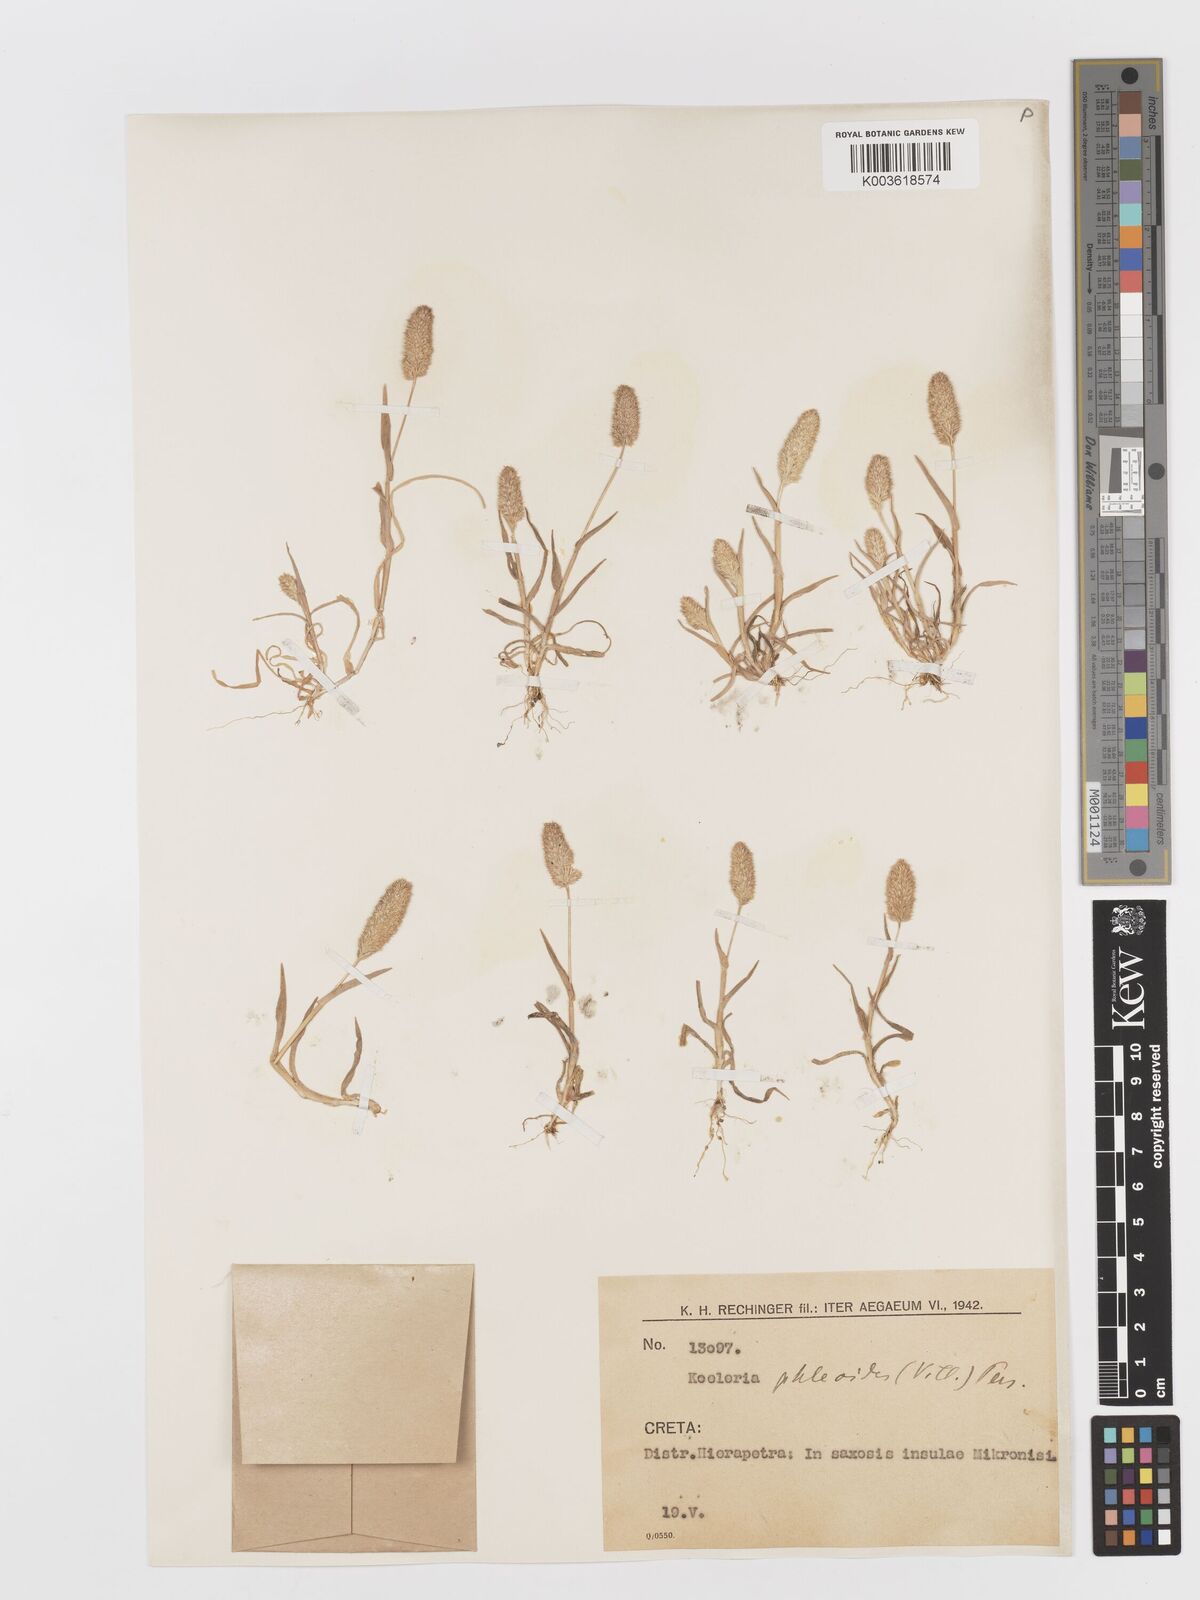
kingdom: Plantae
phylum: Tracheophyta
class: Liliopsida
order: Poales
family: Poaceae
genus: Rostraria
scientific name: Rostraria cristata
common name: Mediterranean hair-grass
